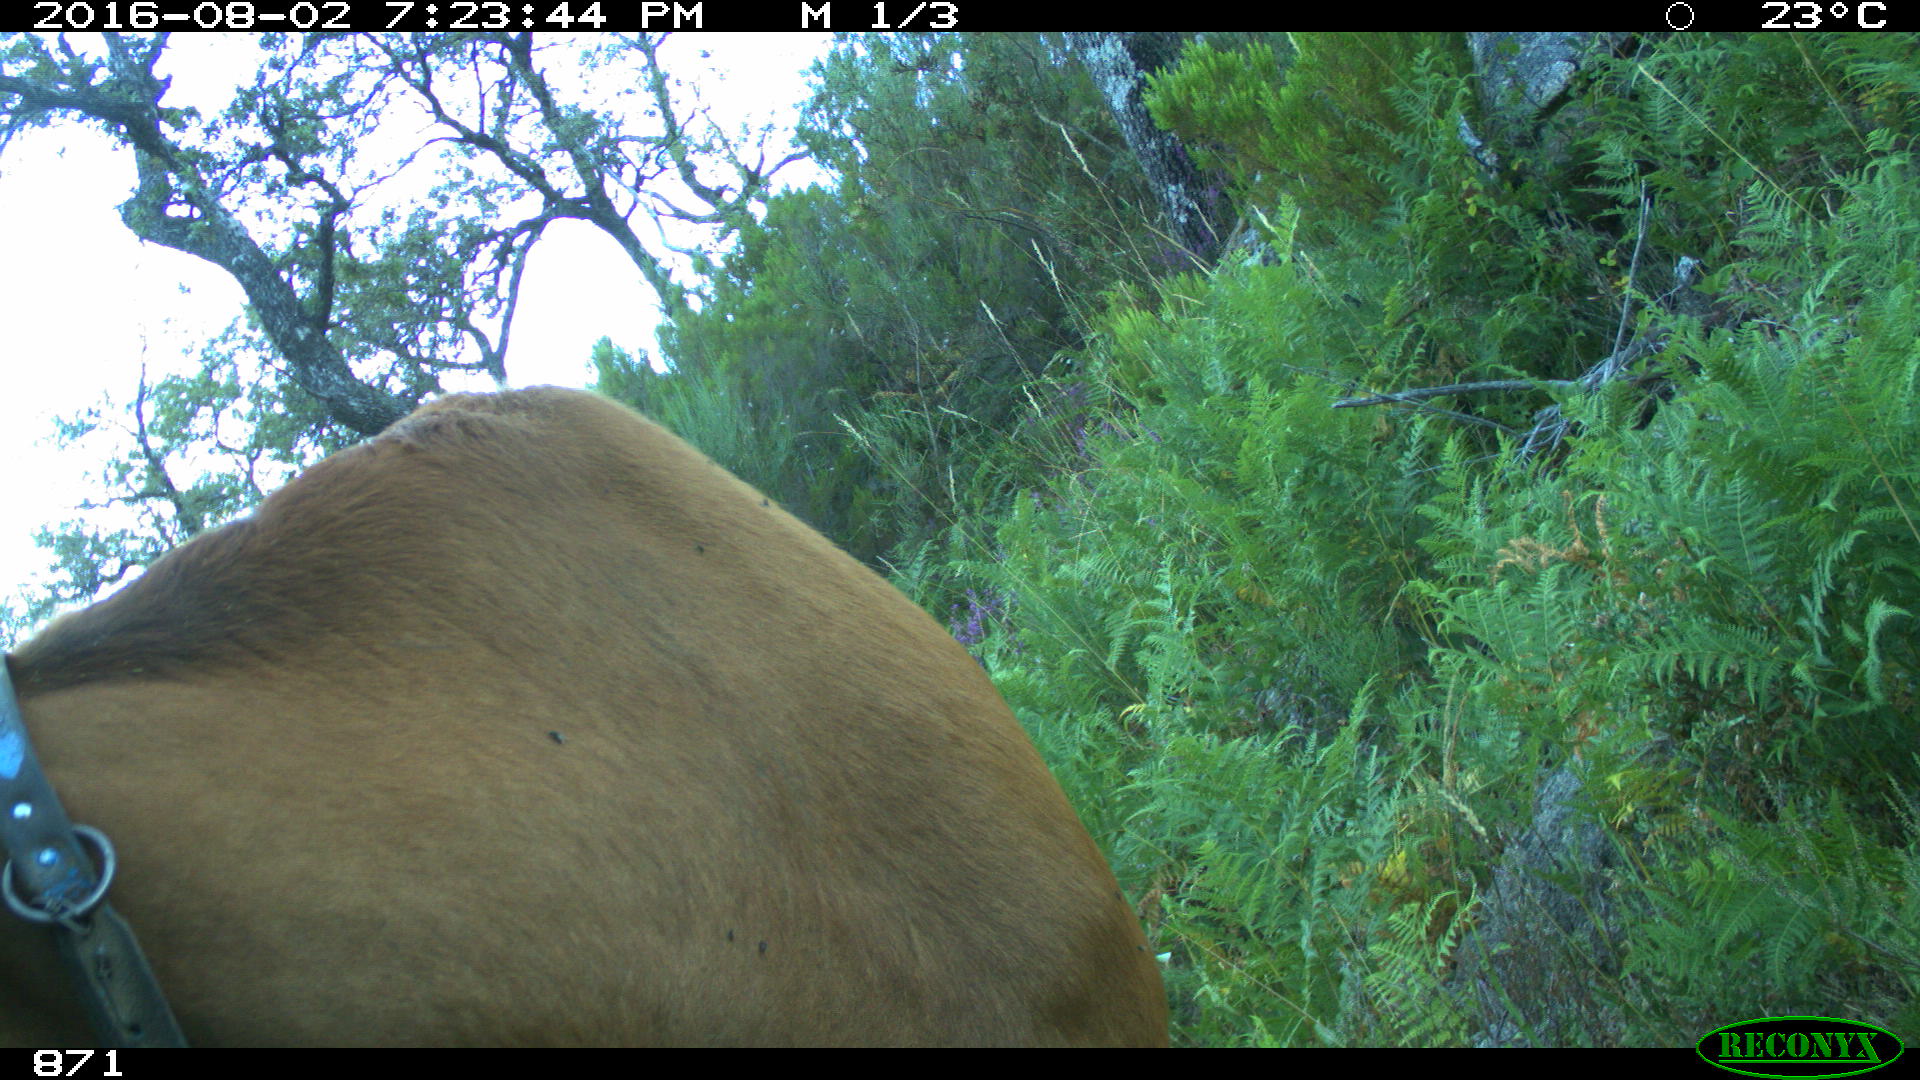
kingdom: Animalia
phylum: Chordata
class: Mammalia
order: Artiodactyla
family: Bovidae
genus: Bos
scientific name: Bos taurus
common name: Domesticated cattle
